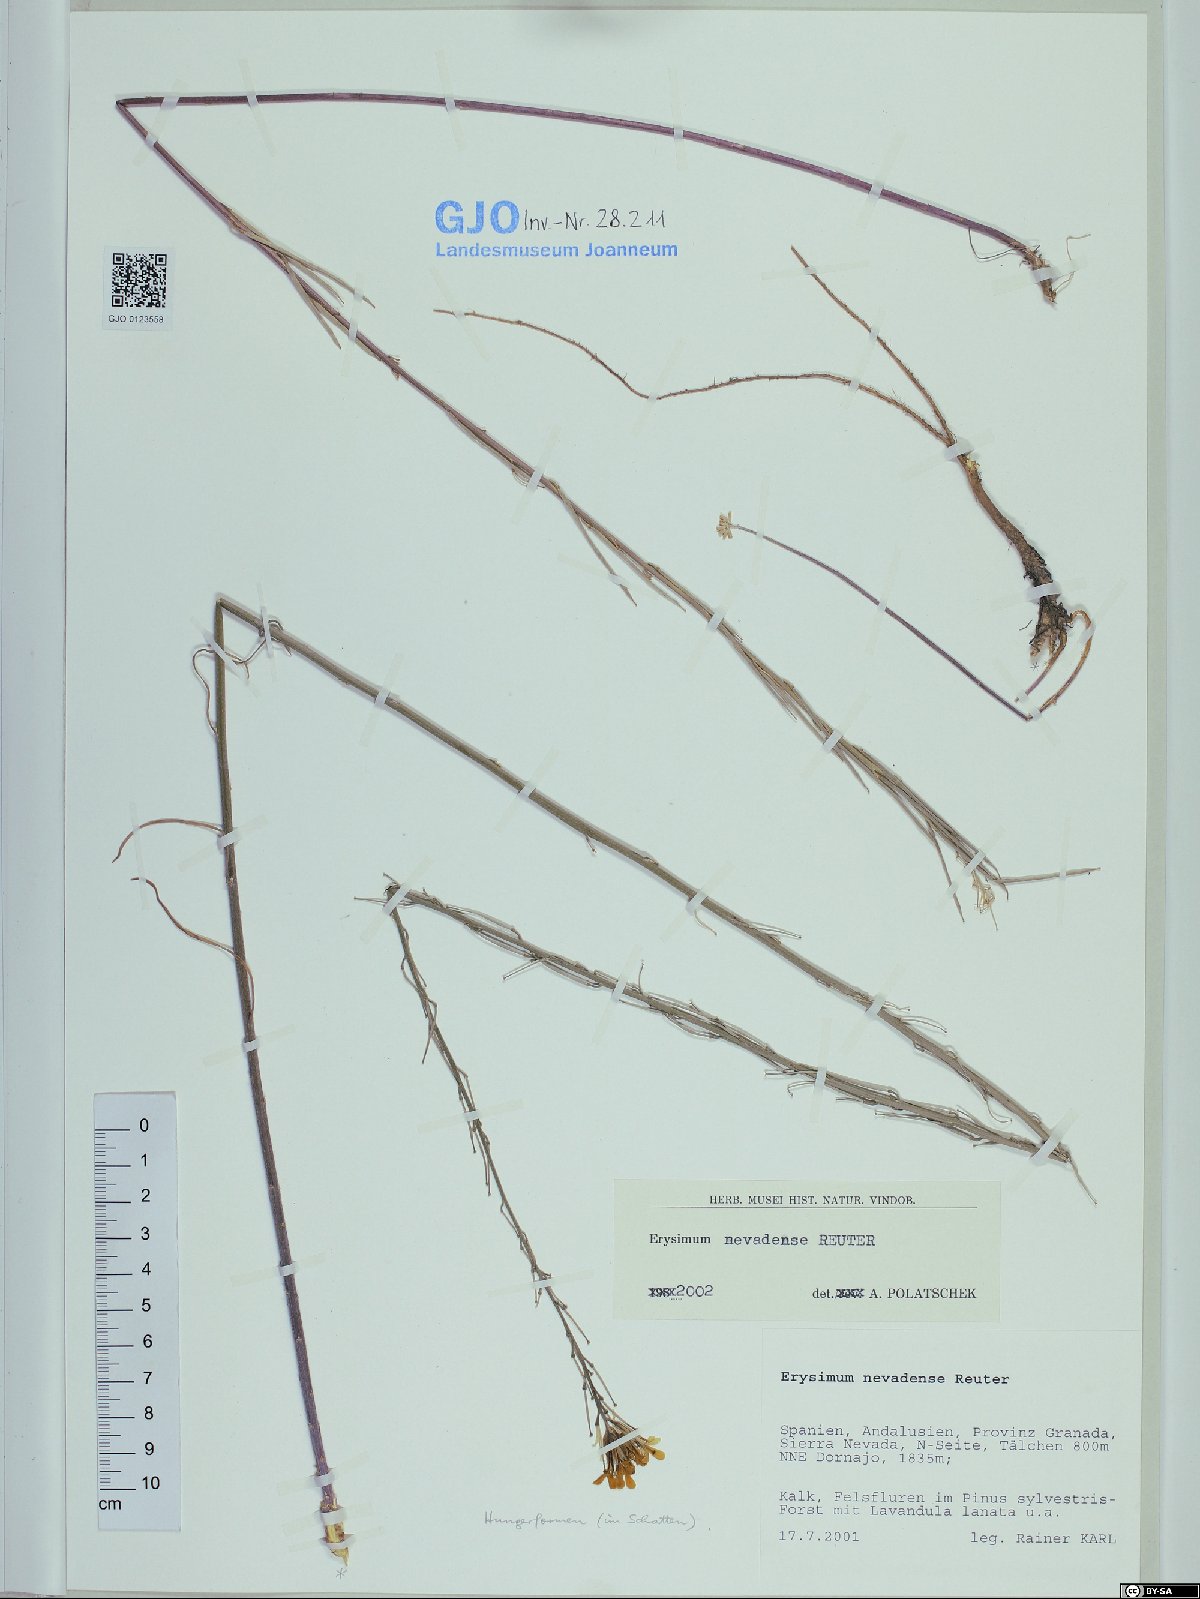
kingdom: Plantae
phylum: Tracheophyta
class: Magnoliopsida
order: Brassicales
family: Brassicaceae
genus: Erysimum
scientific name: Erysimum nevadense
